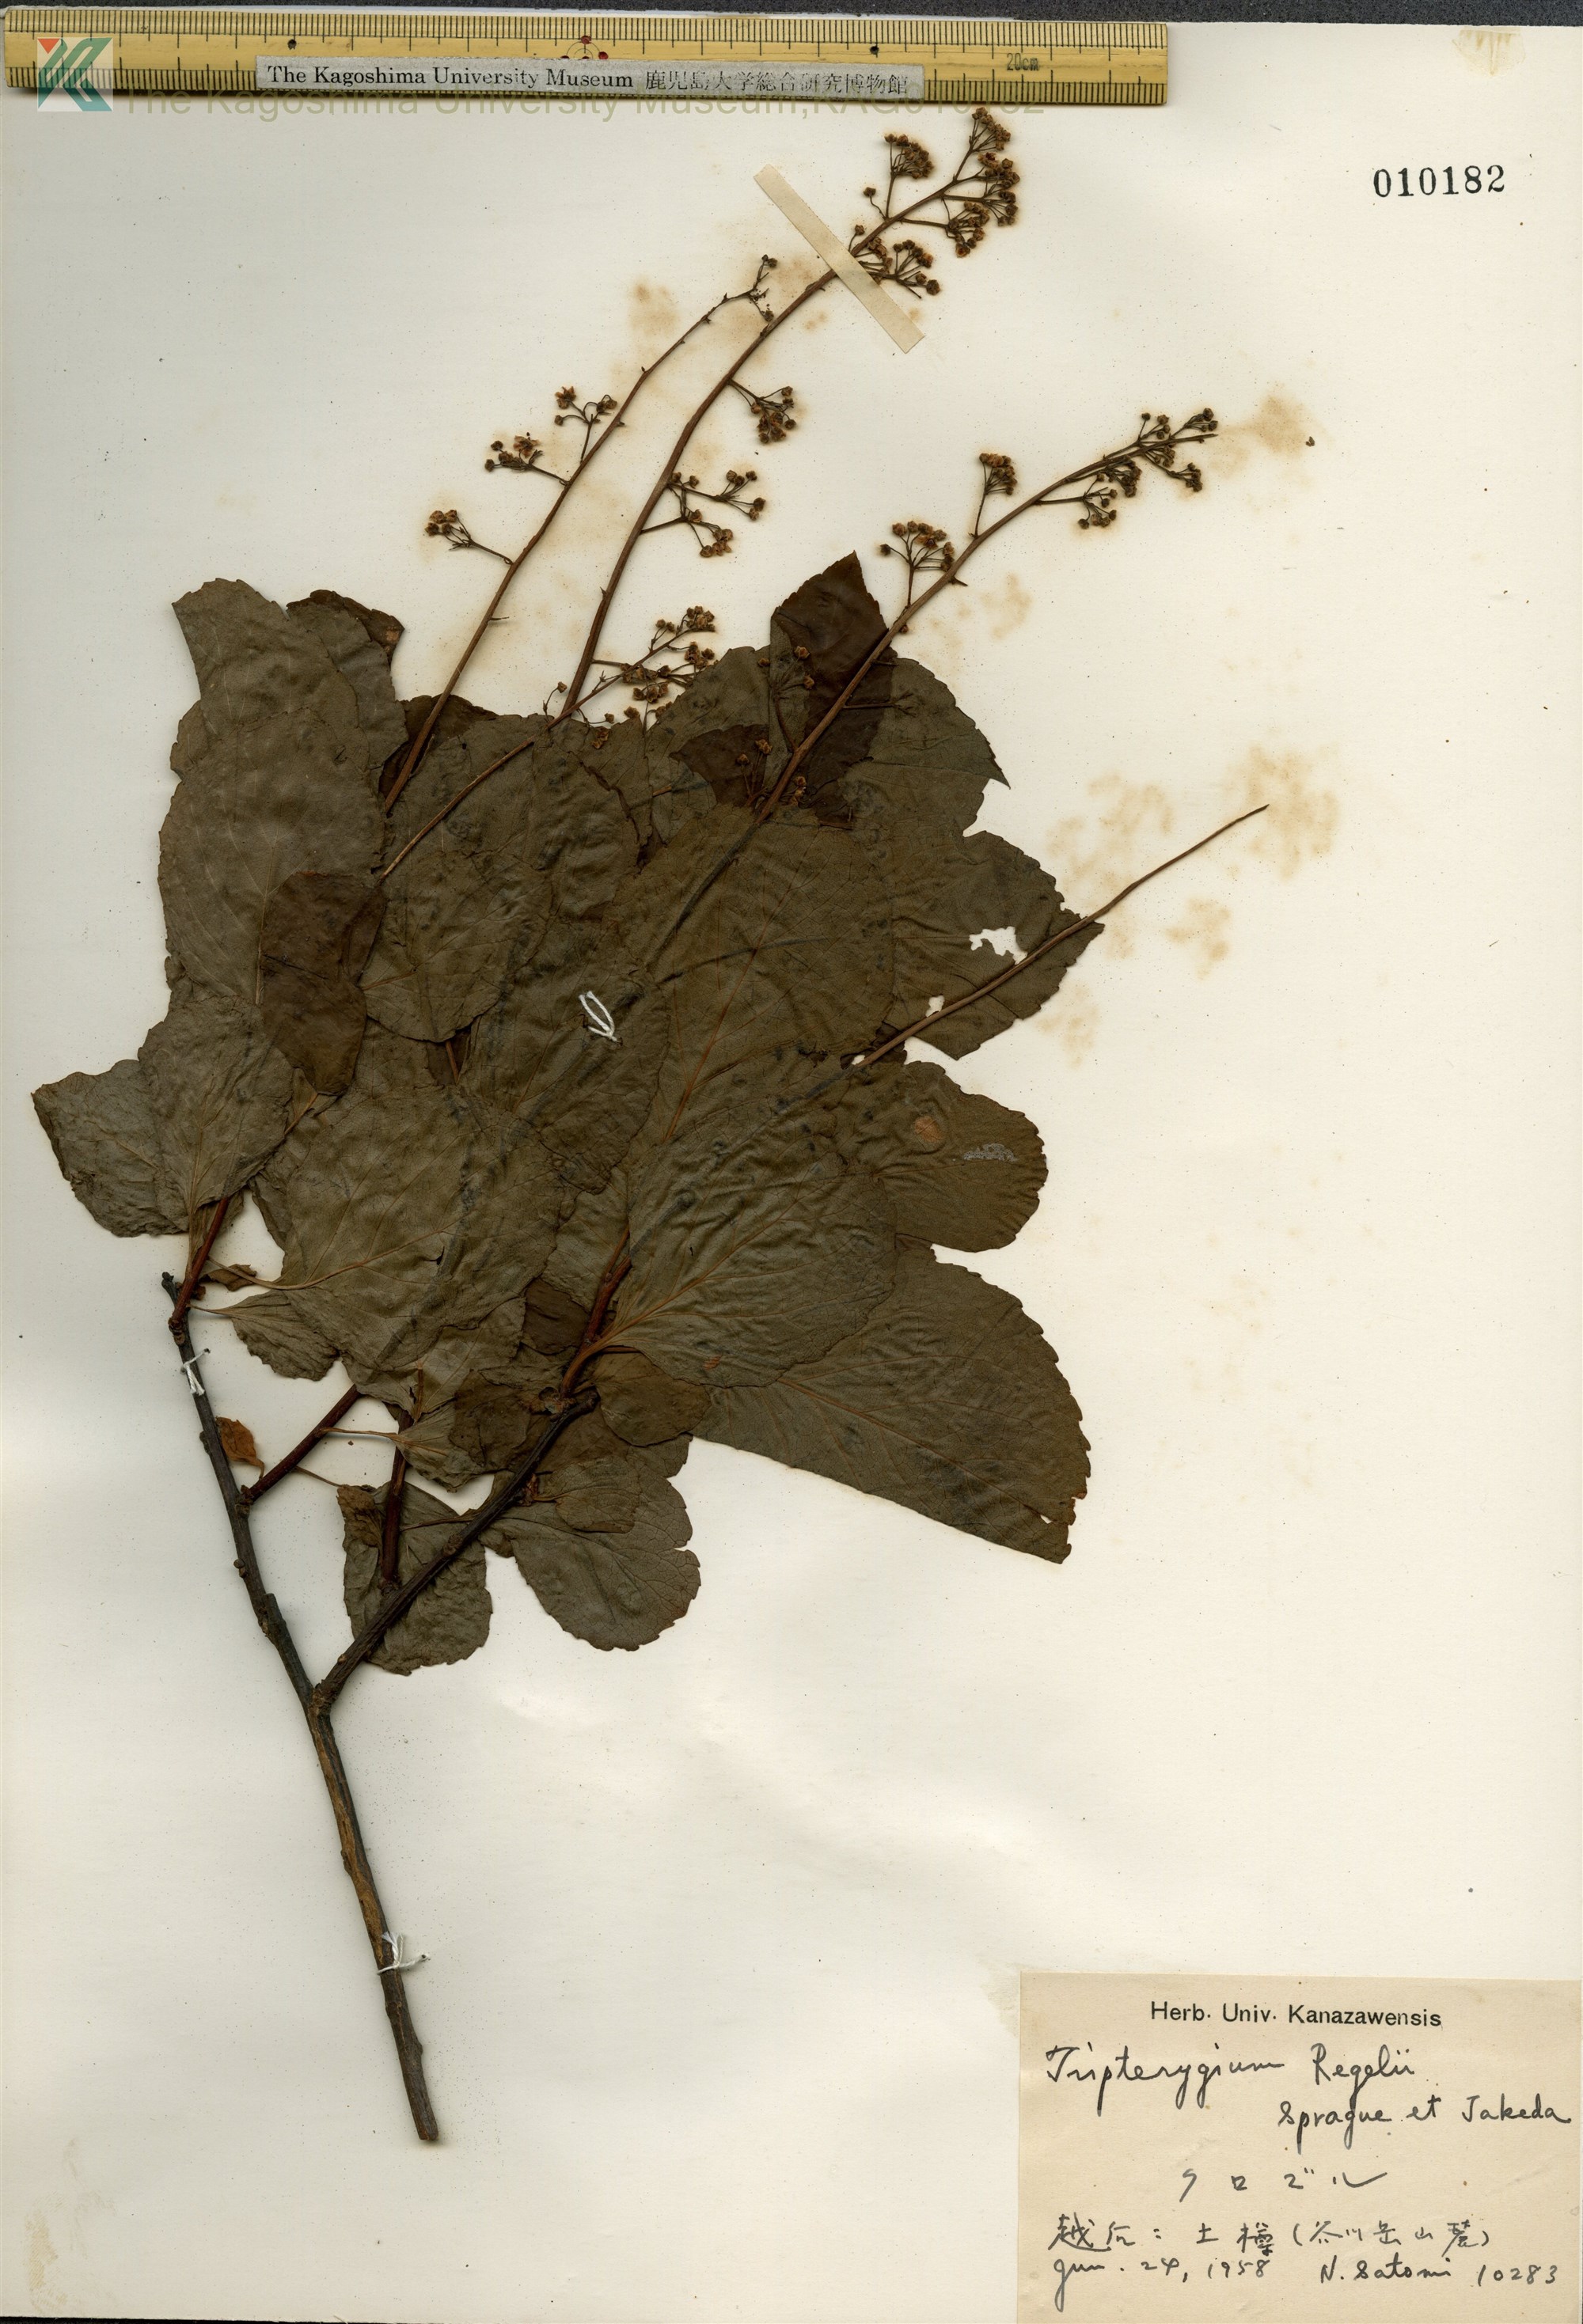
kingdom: Plantae
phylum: Tracheophyta
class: Magnoliopsida
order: Celastrales
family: Celastraceae
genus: Tripterygium
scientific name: Tripterygium wilfordii
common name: クロヅル
